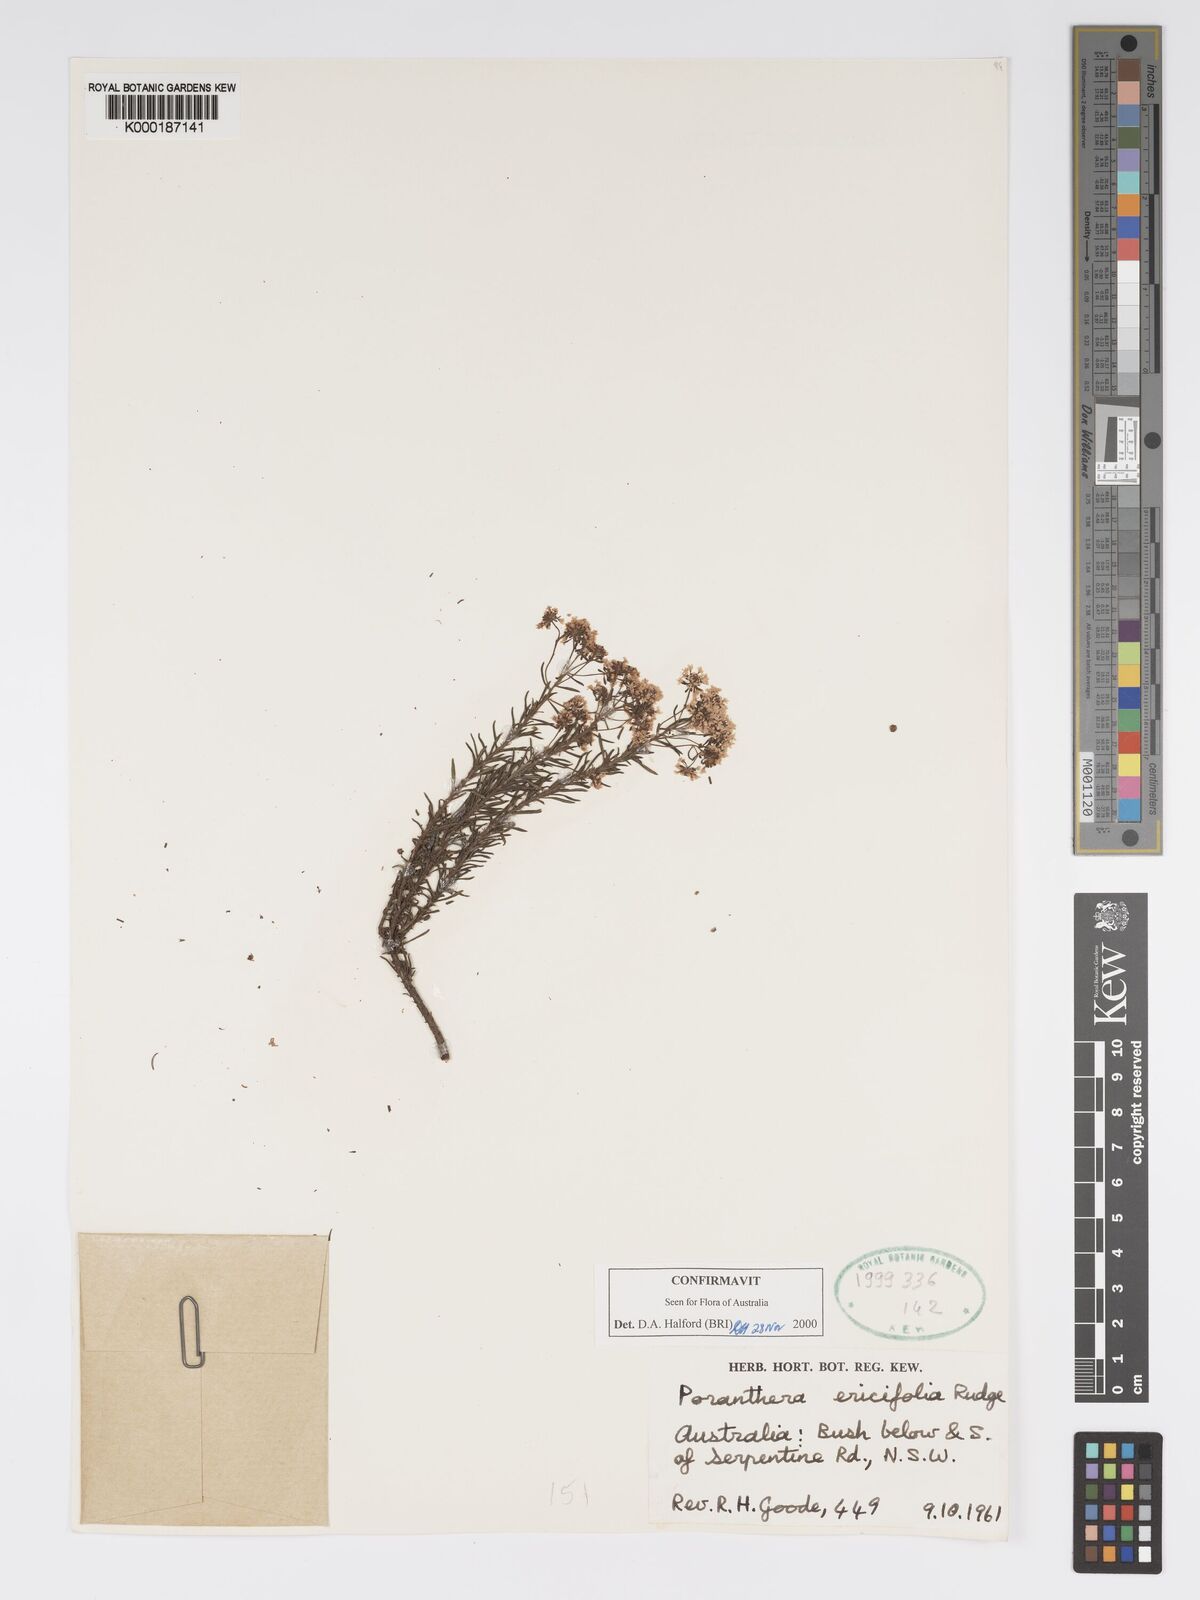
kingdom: Plantae
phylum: Tracheophyta
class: Magnoliopsida
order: Malpighiales
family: Phyllanthaceae
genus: Poranthera
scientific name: Poranthera ericifolia
